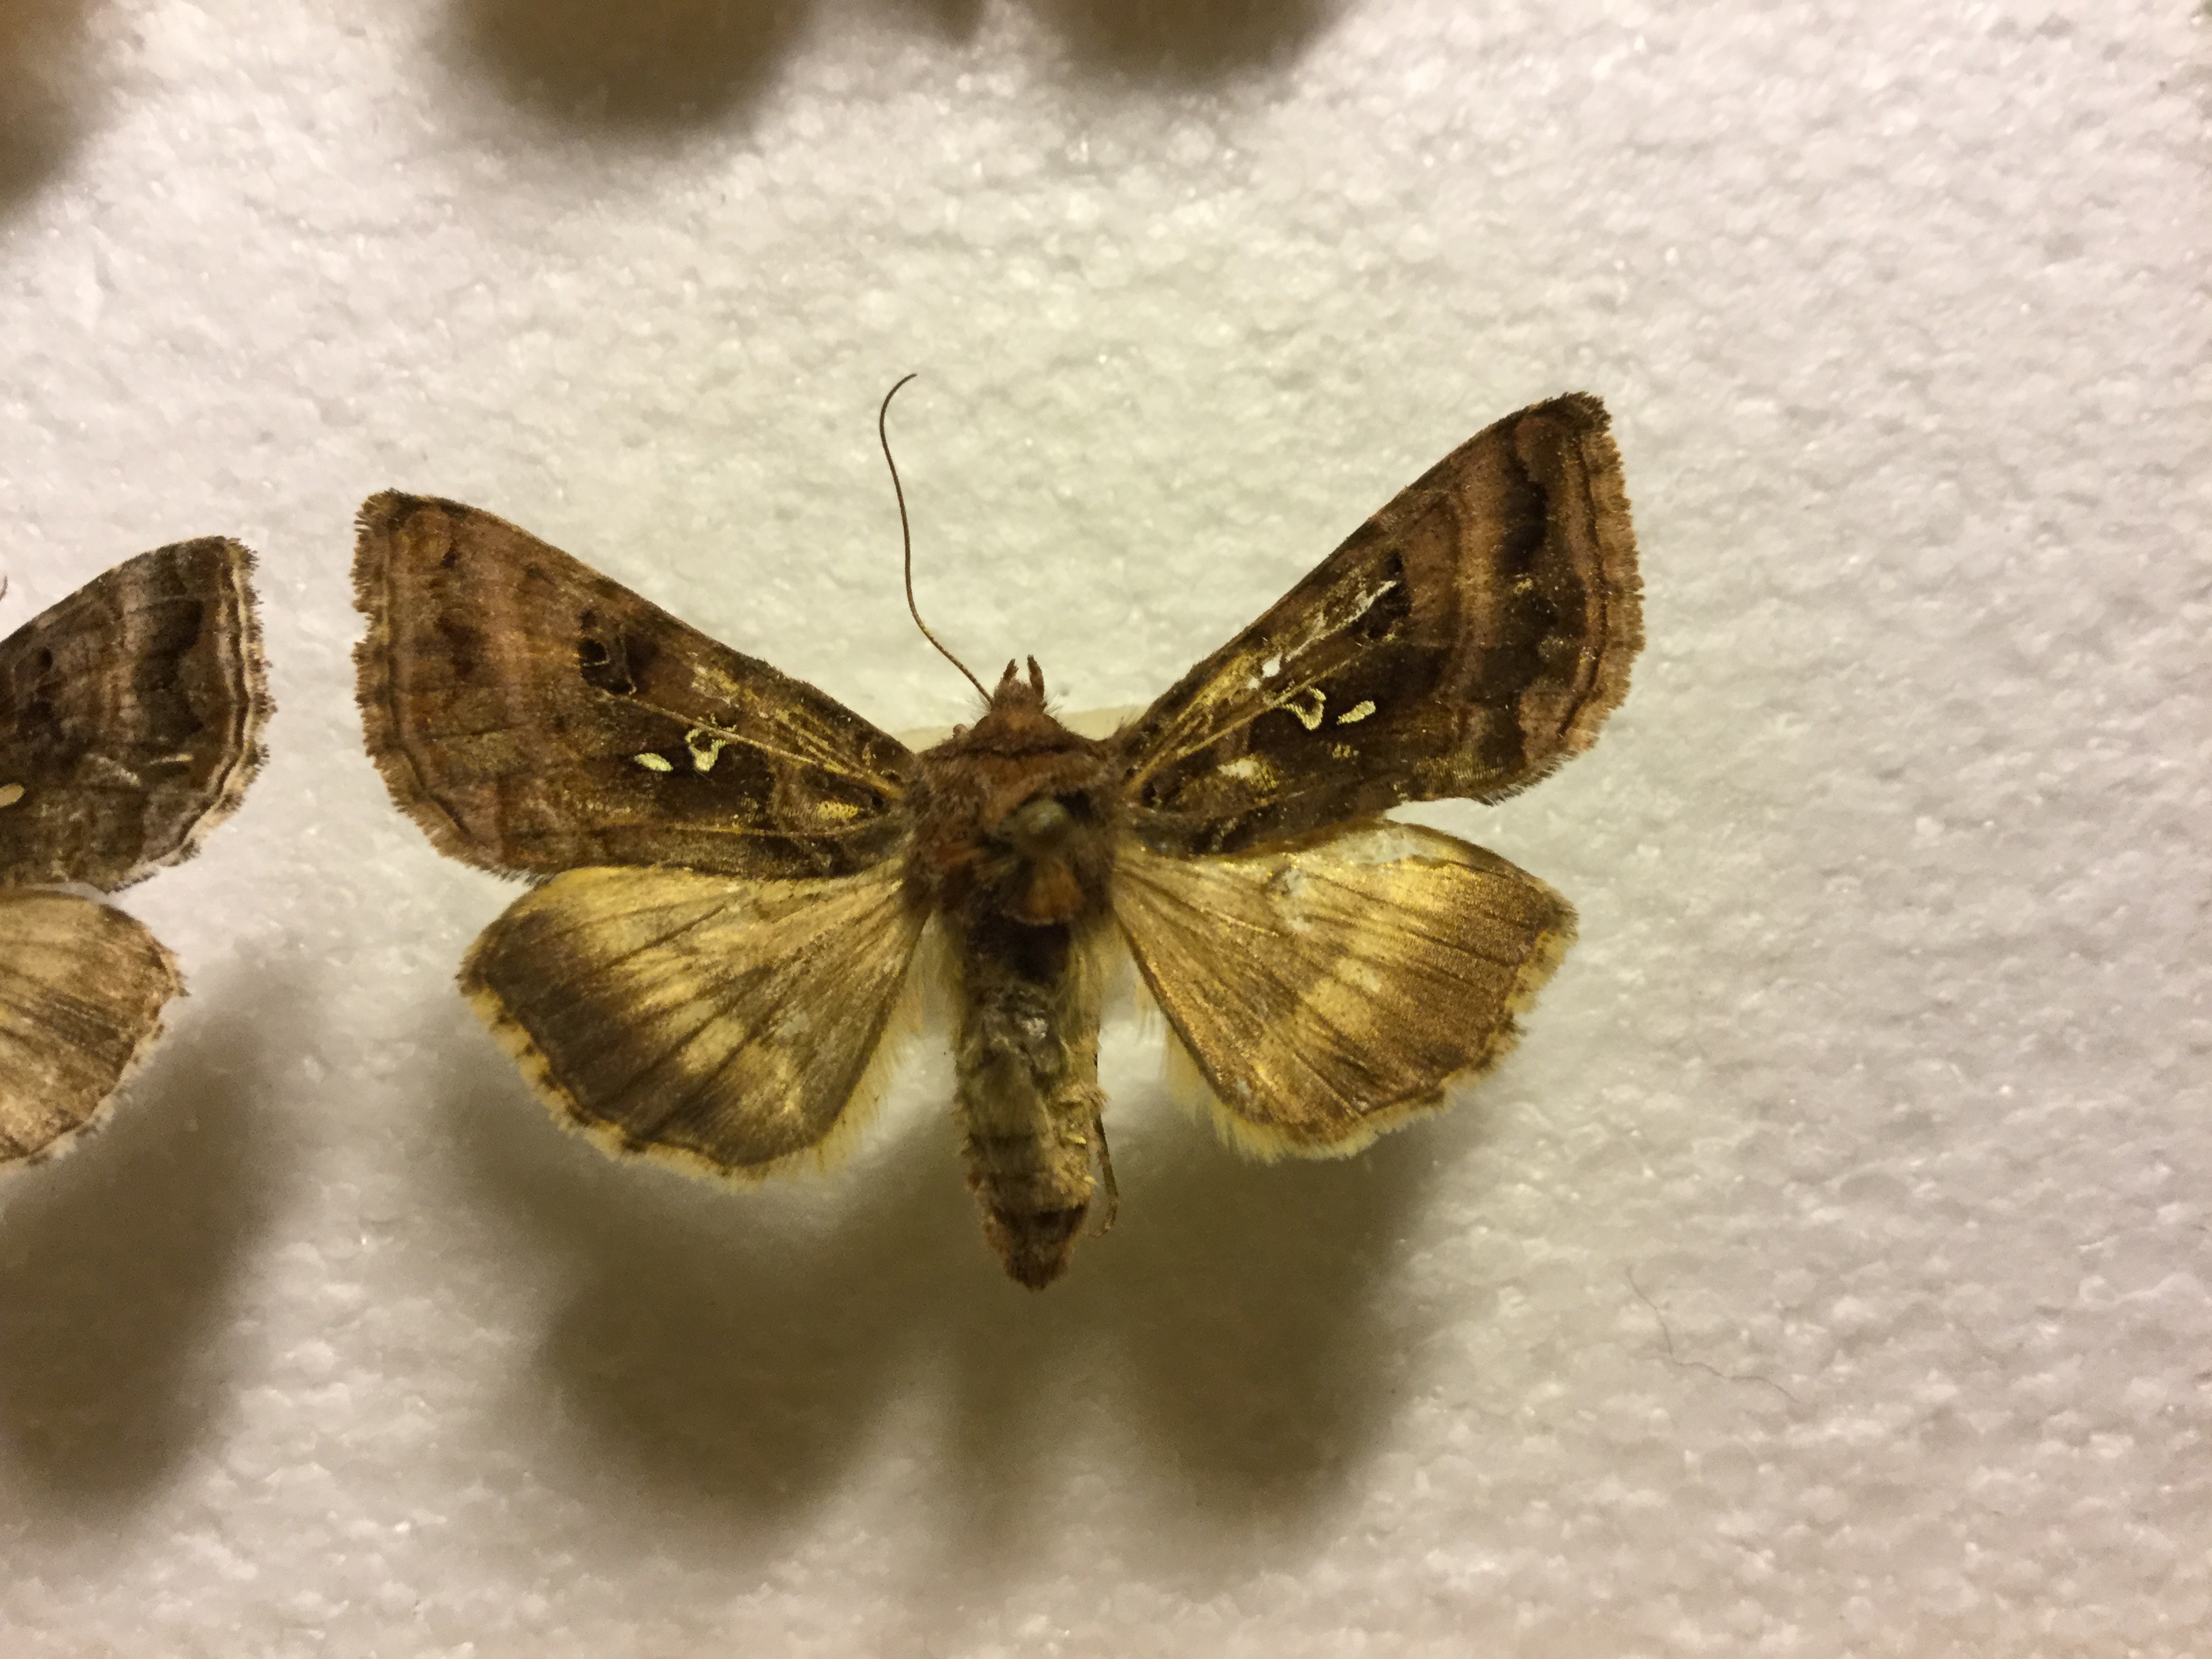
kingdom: Animalia
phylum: Arthropoda
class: Insecta
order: Lepidoptera
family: Noctuidae
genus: Autographa
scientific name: Autographa gamma
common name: Silver y
